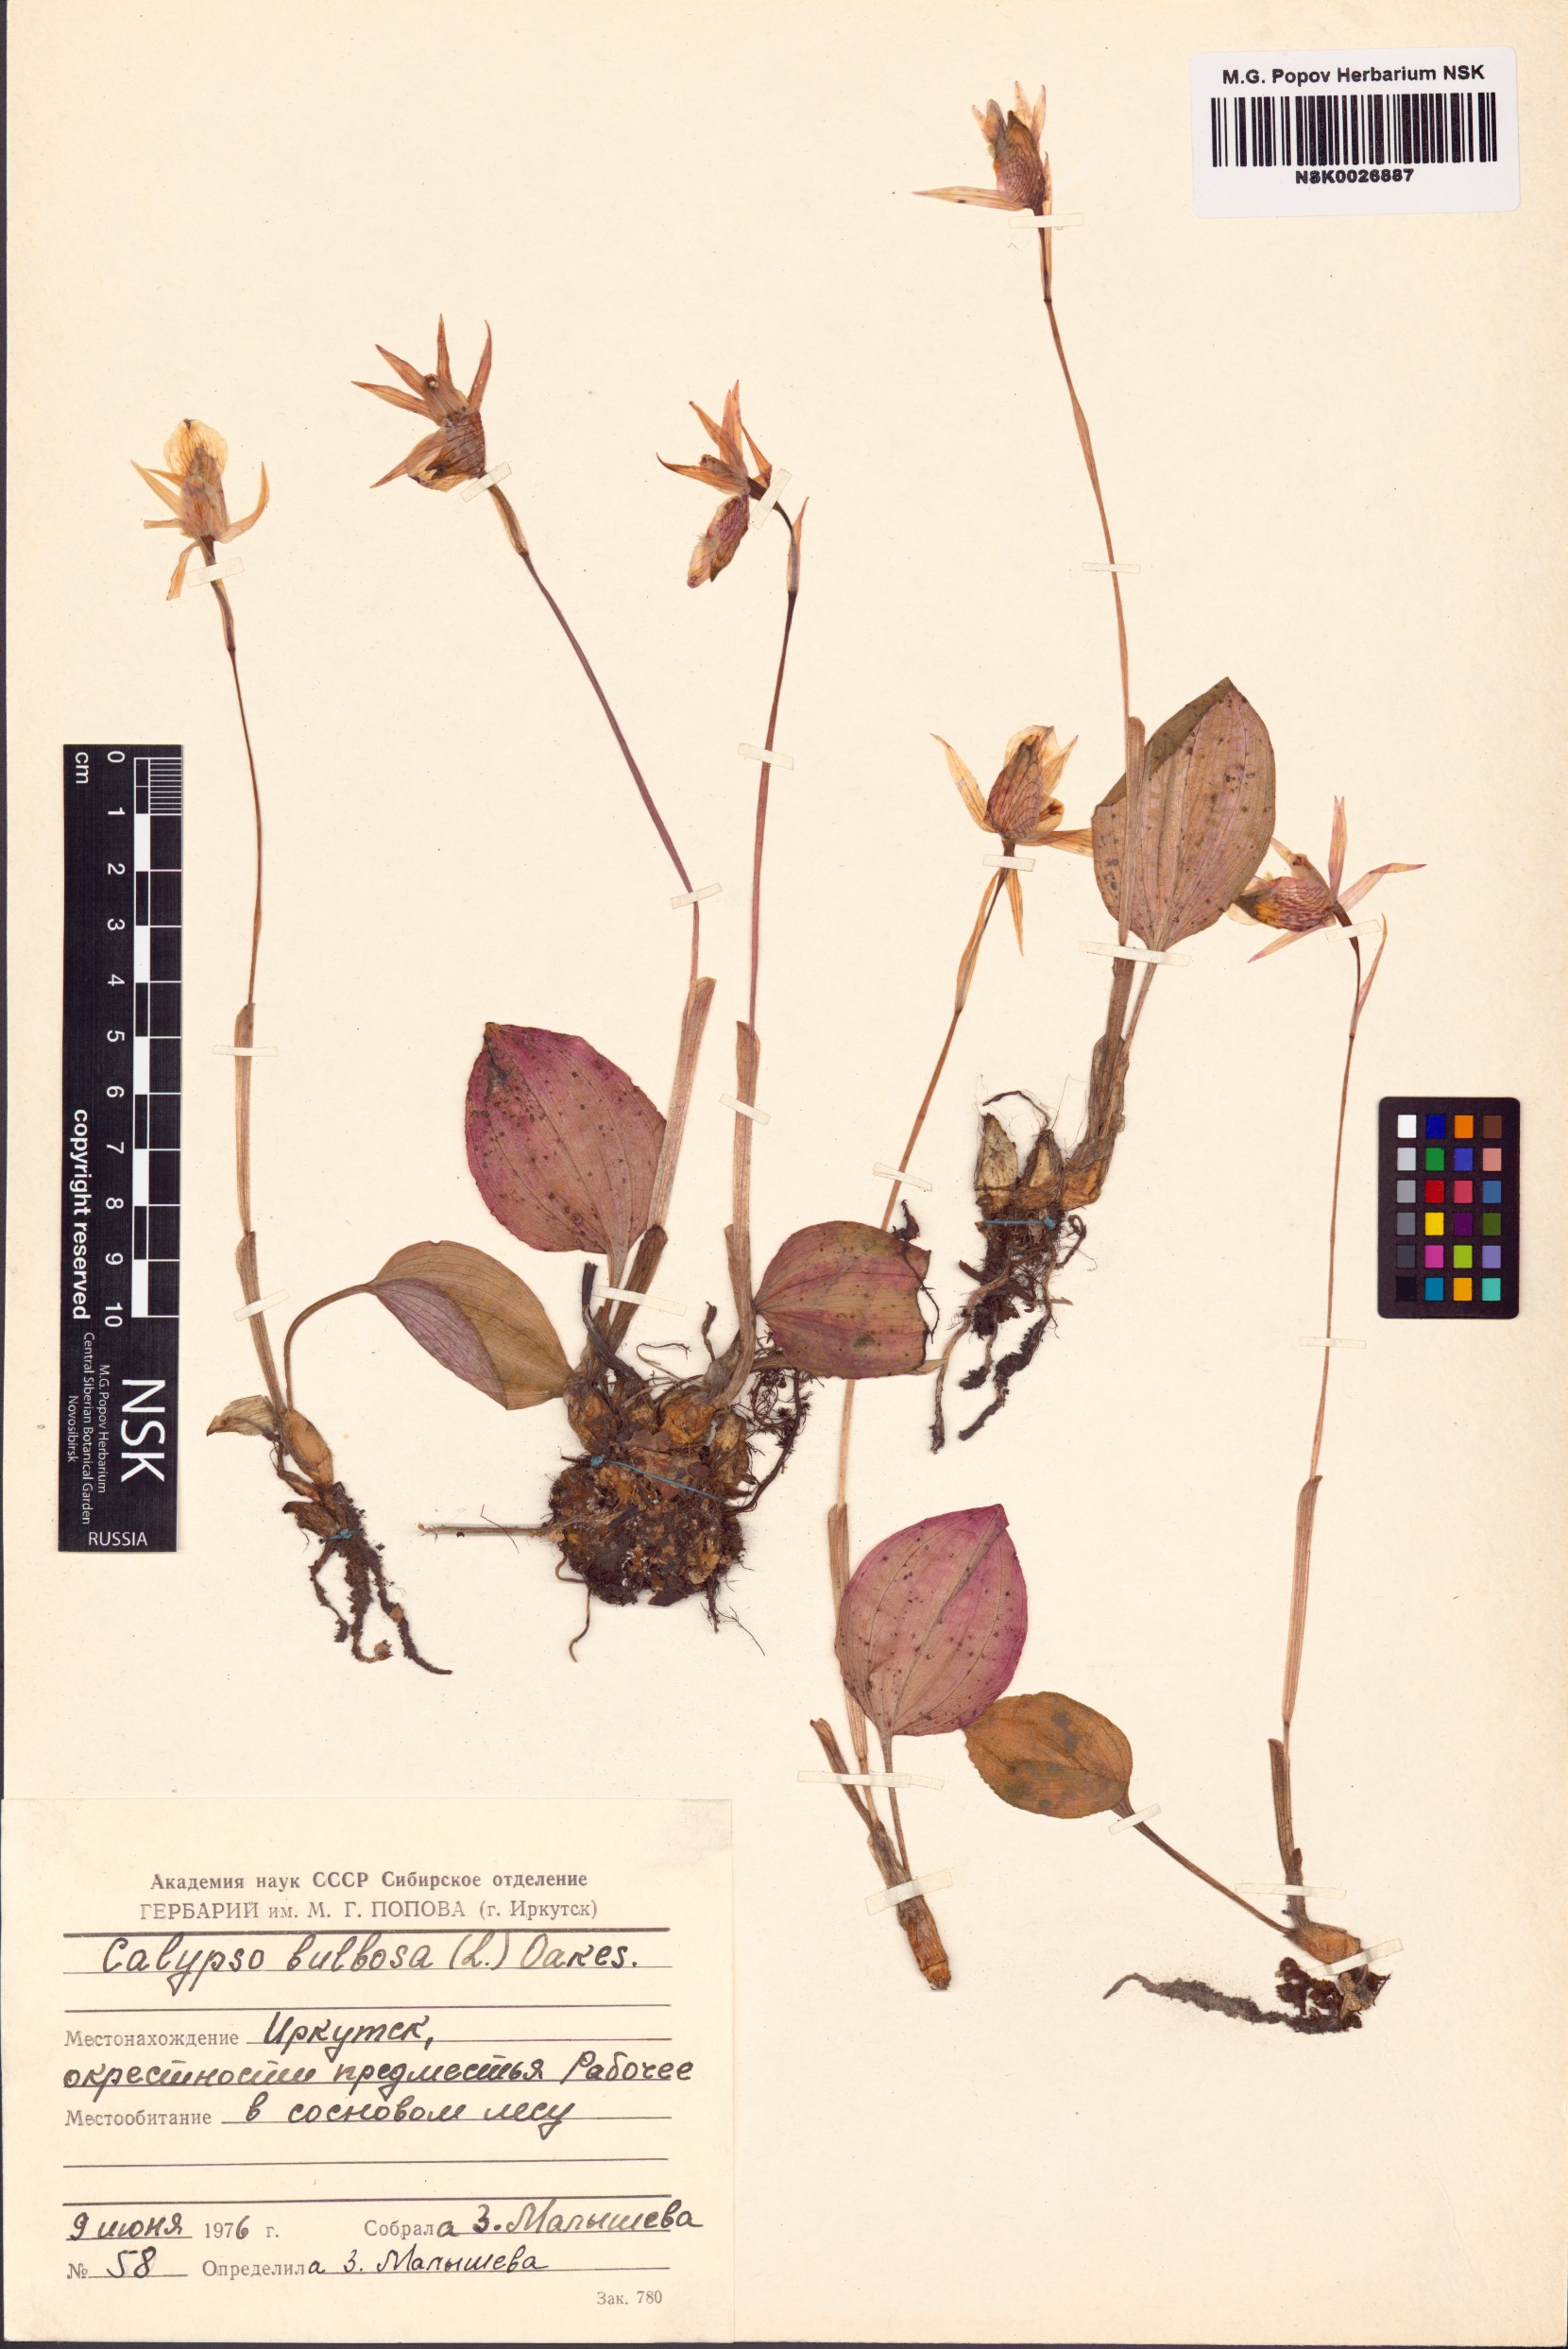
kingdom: Plantae
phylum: Tracheophyta
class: Liliopsida
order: Asparagales
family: Orchidaceae
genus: Calypso
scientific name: Calypso bulbosa
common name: Calypso
